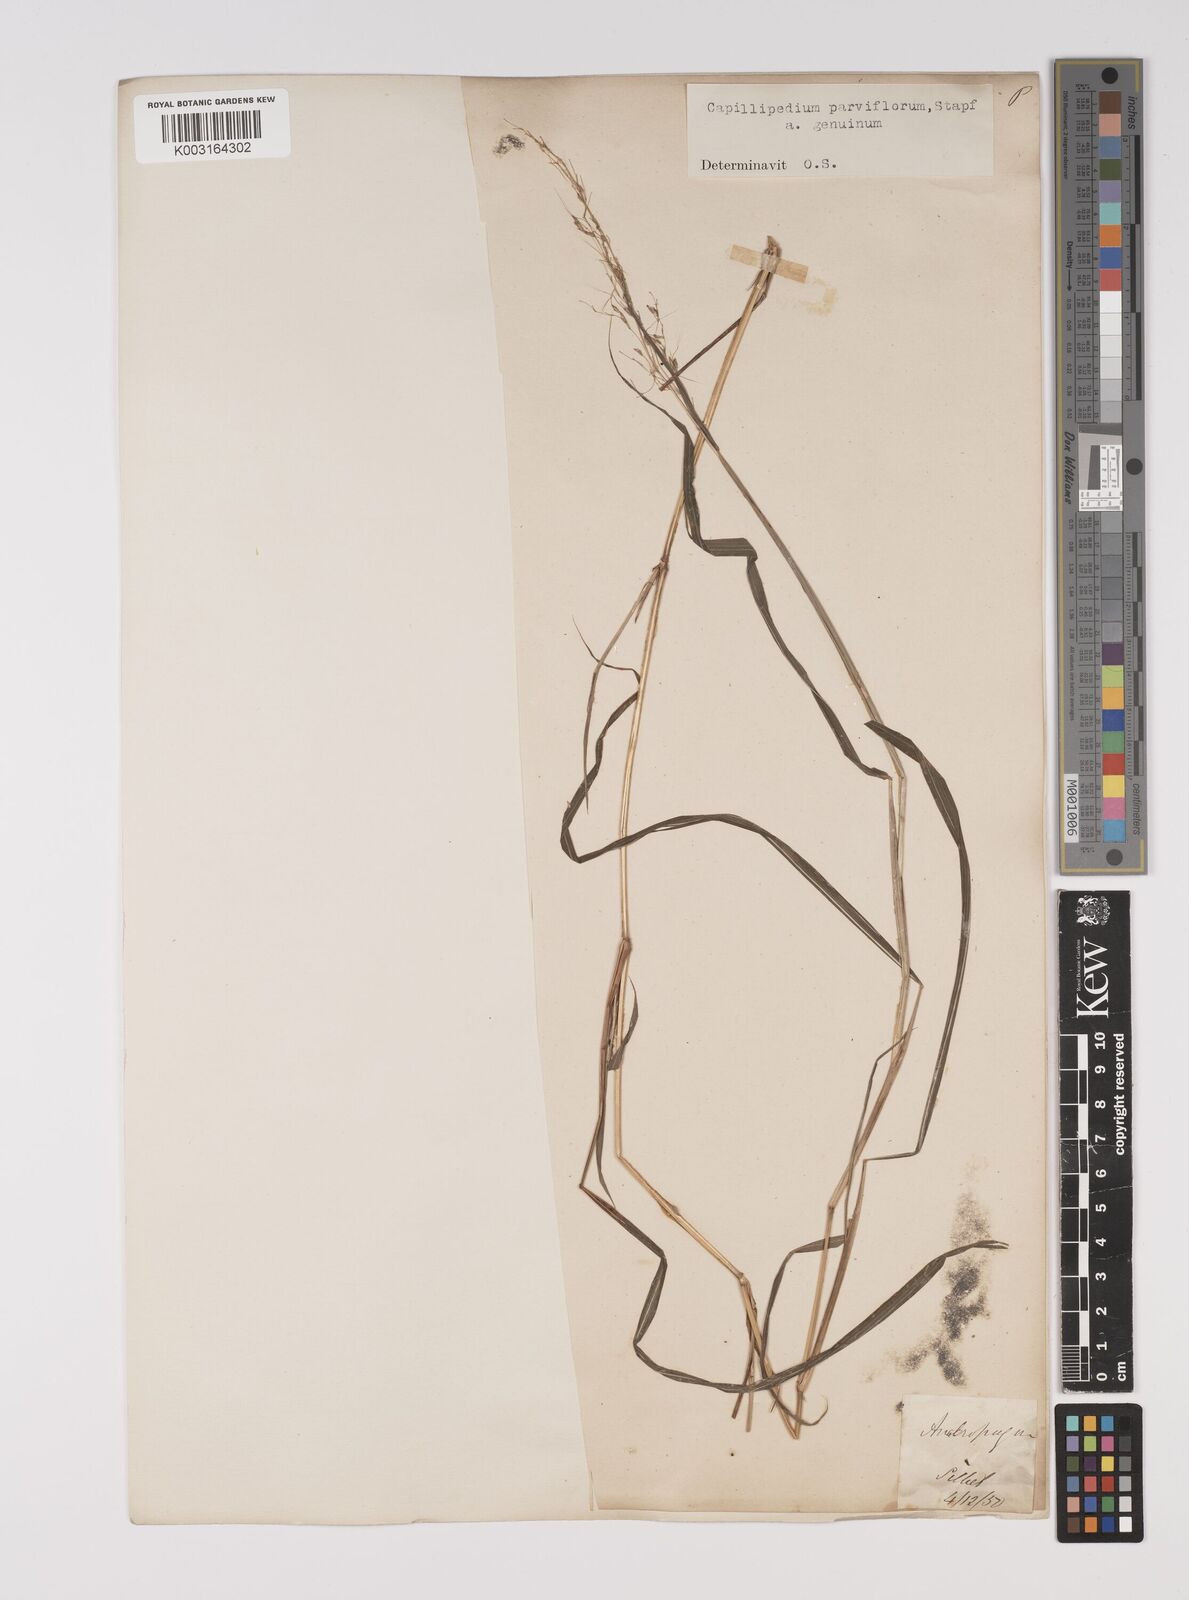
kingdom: Plantae
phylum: Tracheophyta
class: Liliopsida
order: Poales
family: Poaceae
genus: Capillipedium
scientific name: Capillipedium parviflorum
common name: Golden-beard
